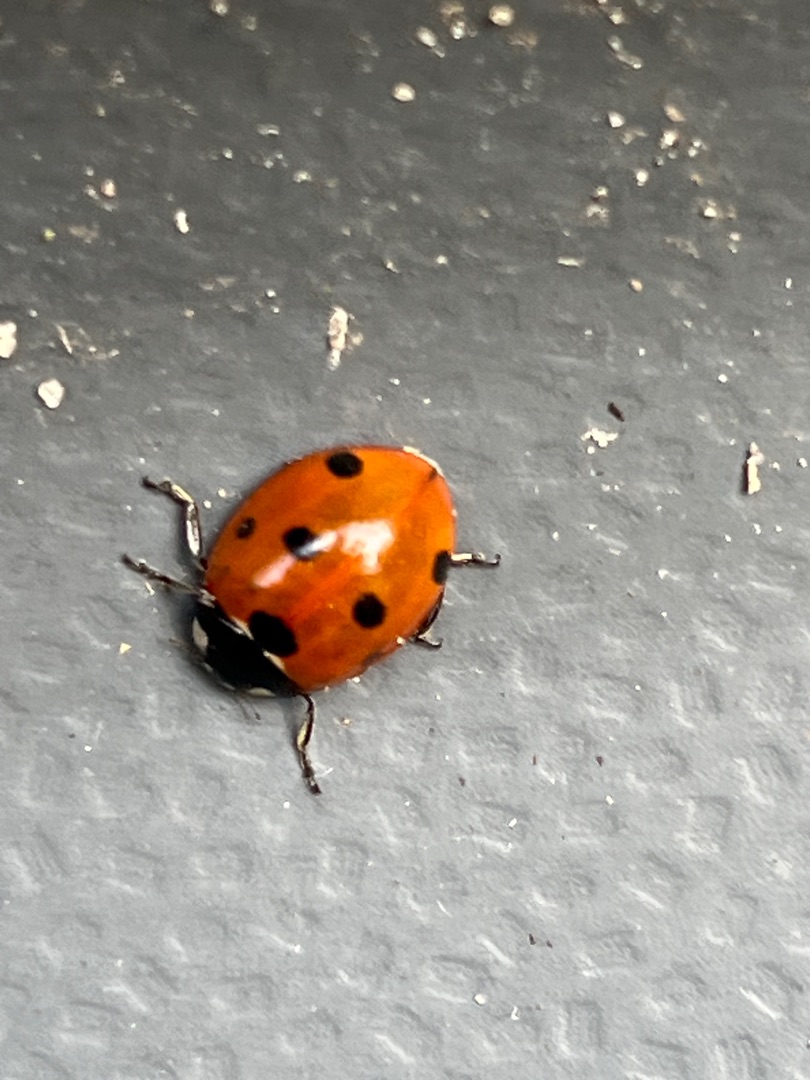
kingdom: Animalia
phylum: Arthropoda
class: Insecta
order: Coleoptera
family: Coccinellidae
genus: Coccinella
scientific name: Coccinella septempunctata
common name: Syvplettet mariehøne
